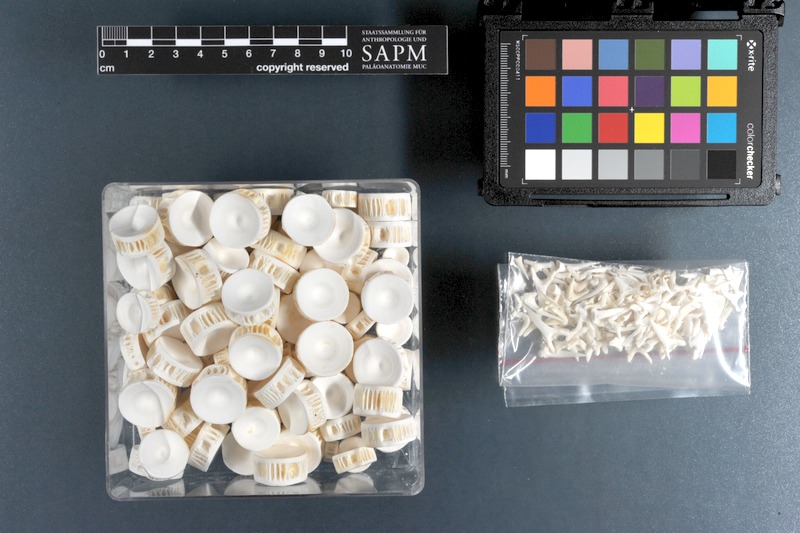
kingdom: Animalia
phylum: Chordata
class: Elasmobranchii
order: Lamniformes
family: Odontaspididae
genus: Carcharias
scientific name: Carcharias taurus
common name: Sand shark
